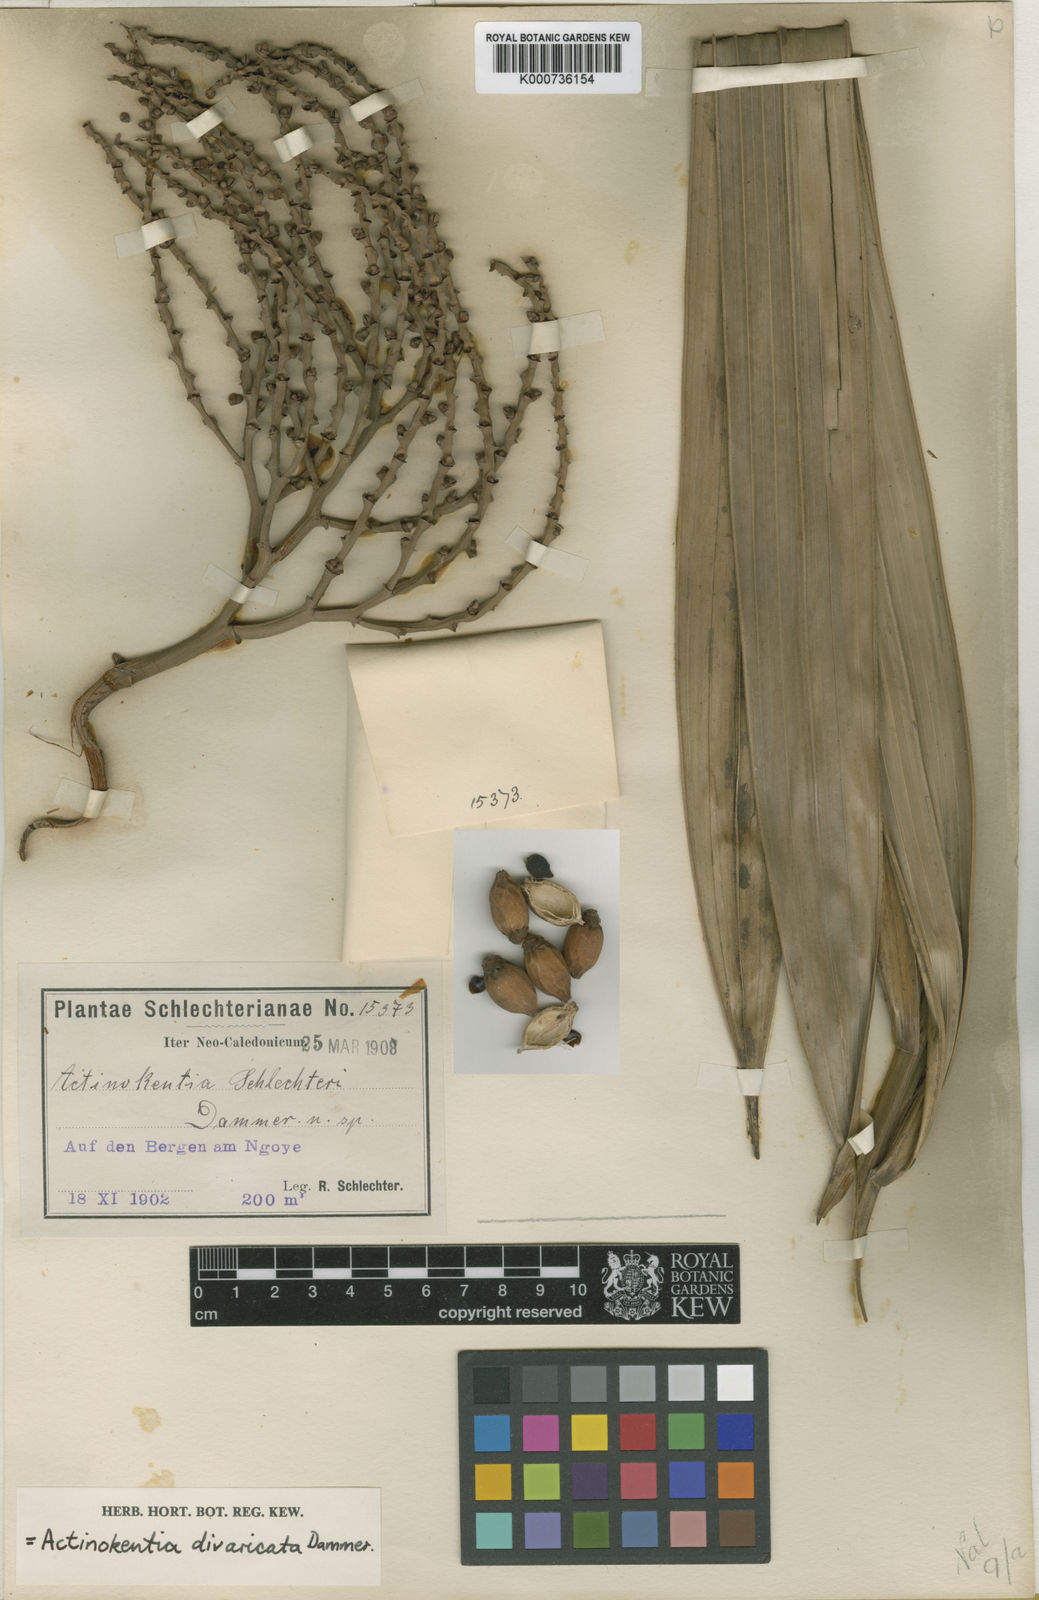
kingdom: Plantae
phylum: Tracheophyta
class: Liliopsida
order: Arecales
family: Arecaceae
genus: Chambeyronia
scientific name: Chambeyronia divaricata
